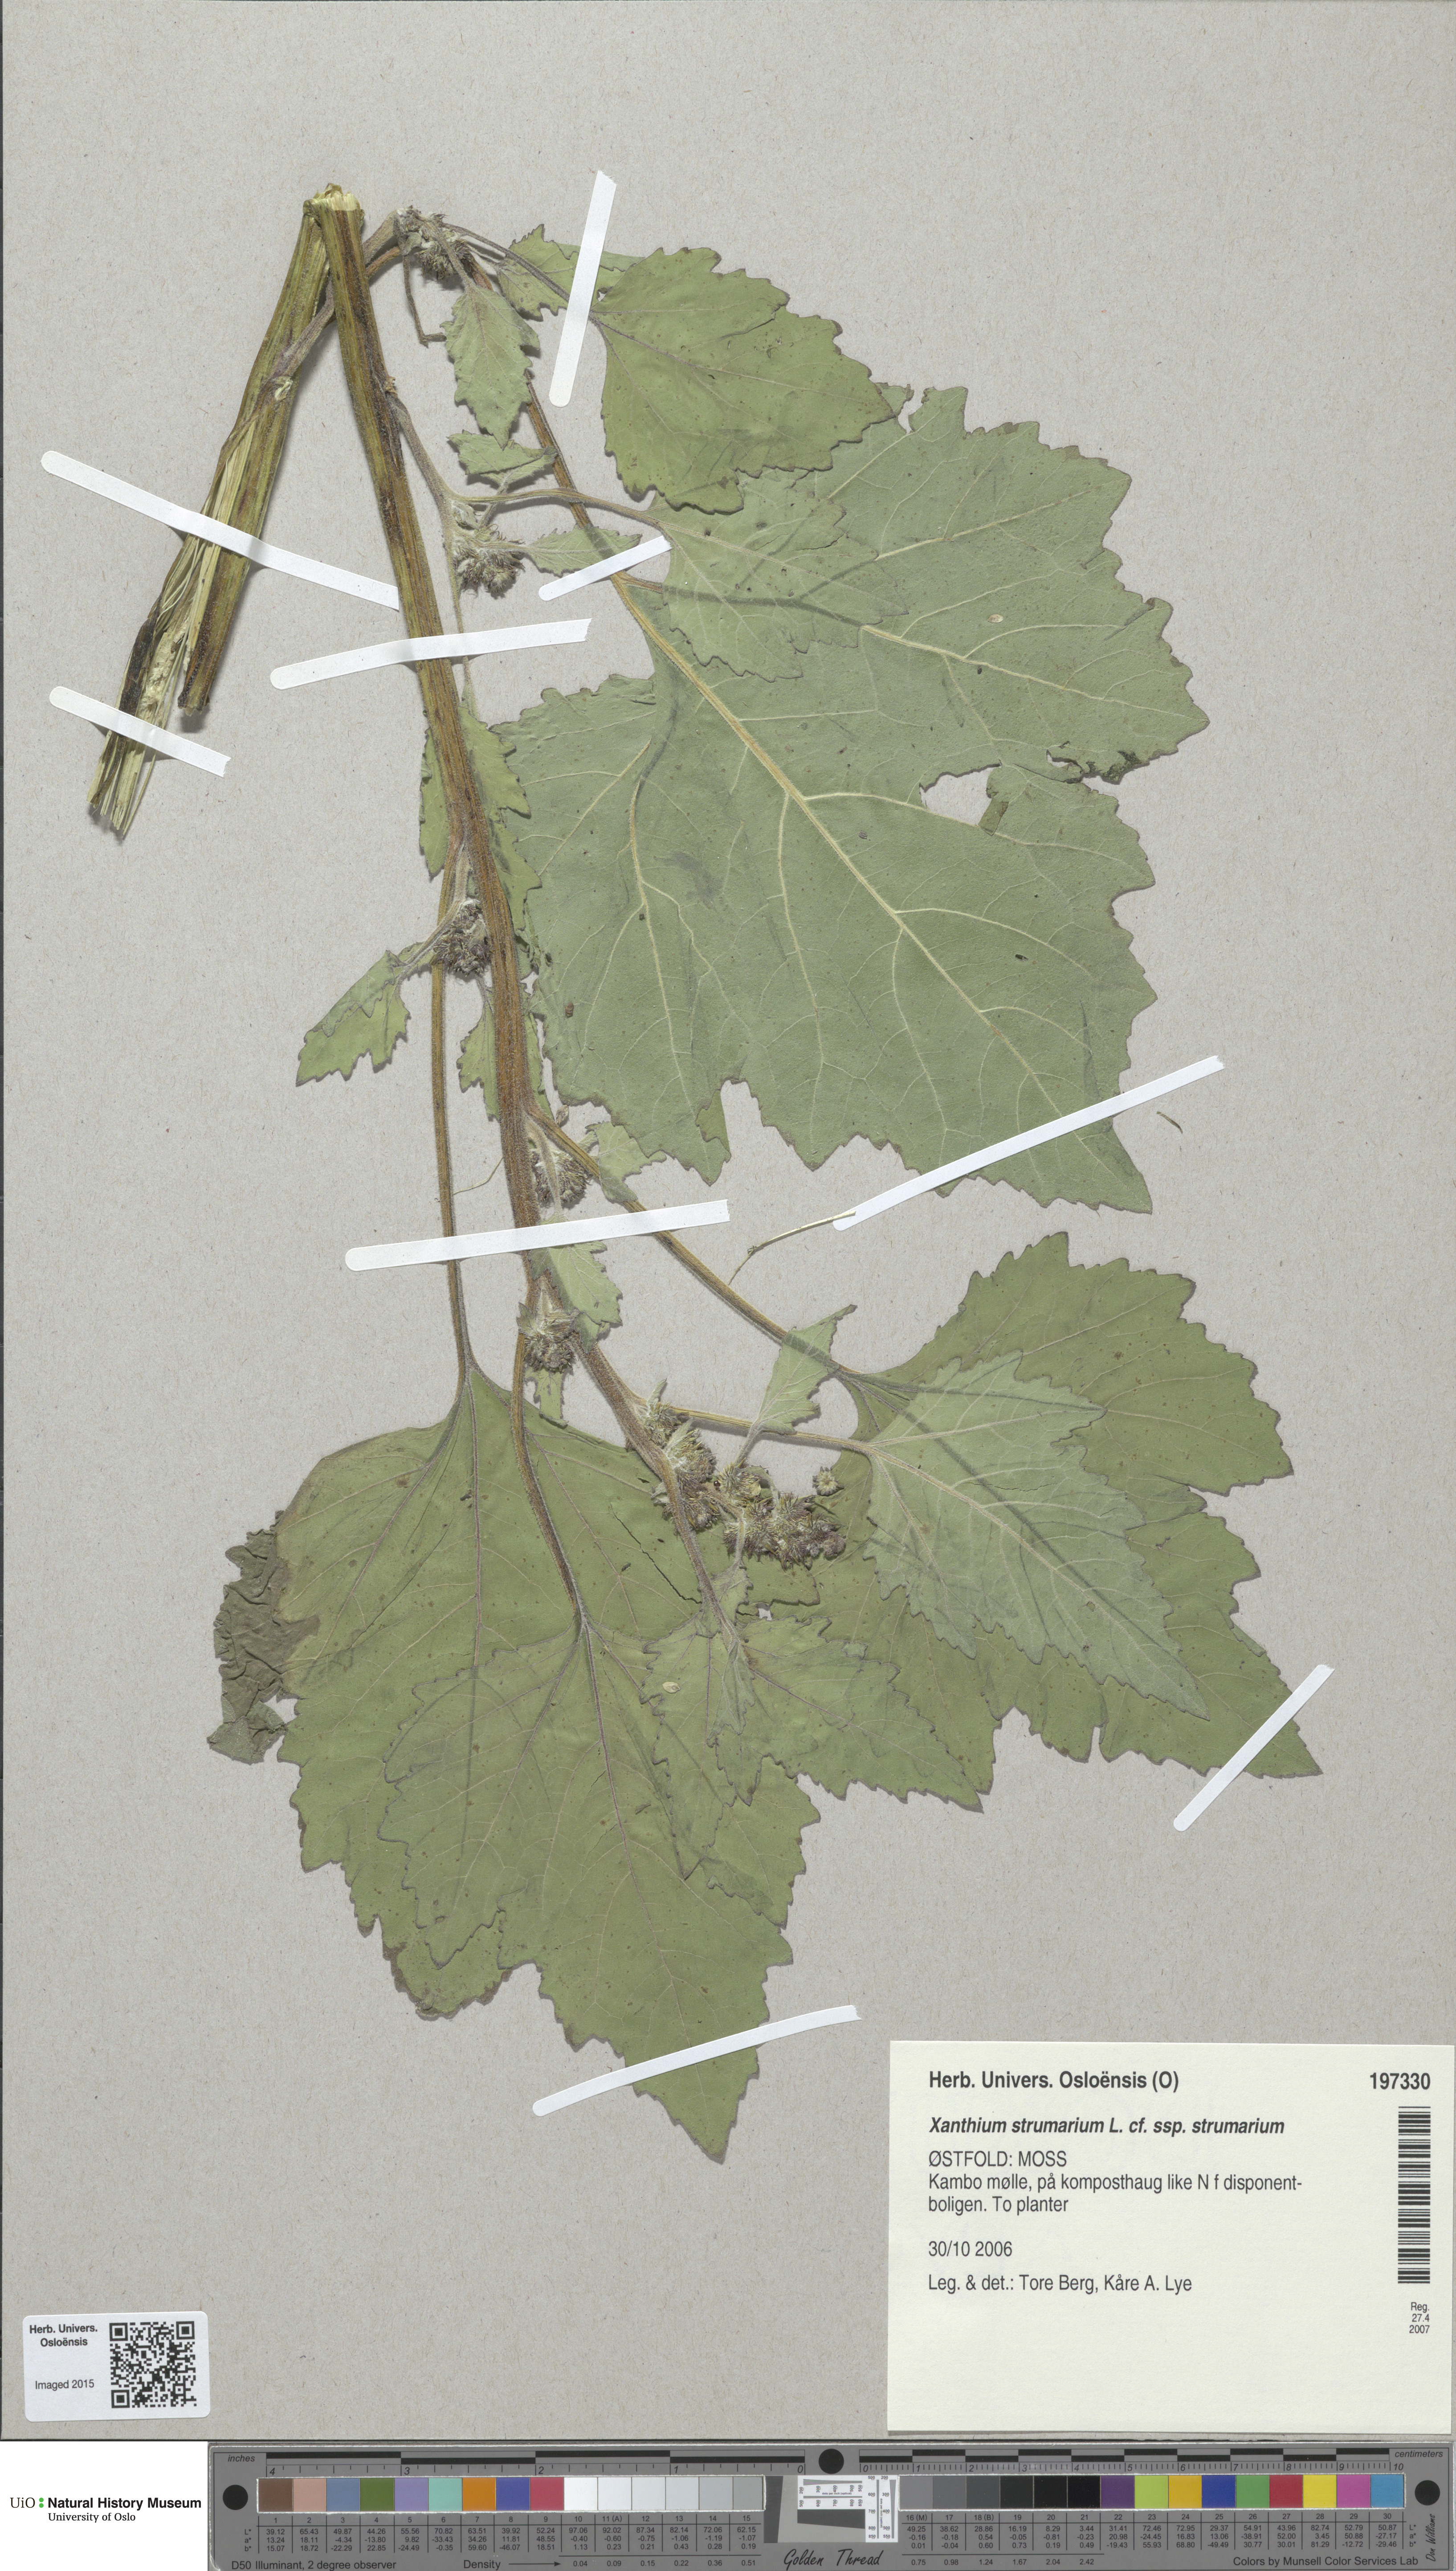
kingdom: Plantae
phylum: Tracheophyta
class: Magnoliopsida
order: Asterales
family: Asteraceae
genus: Xanthium
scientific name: Xanthium strumarium
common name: Rough cocklebur
